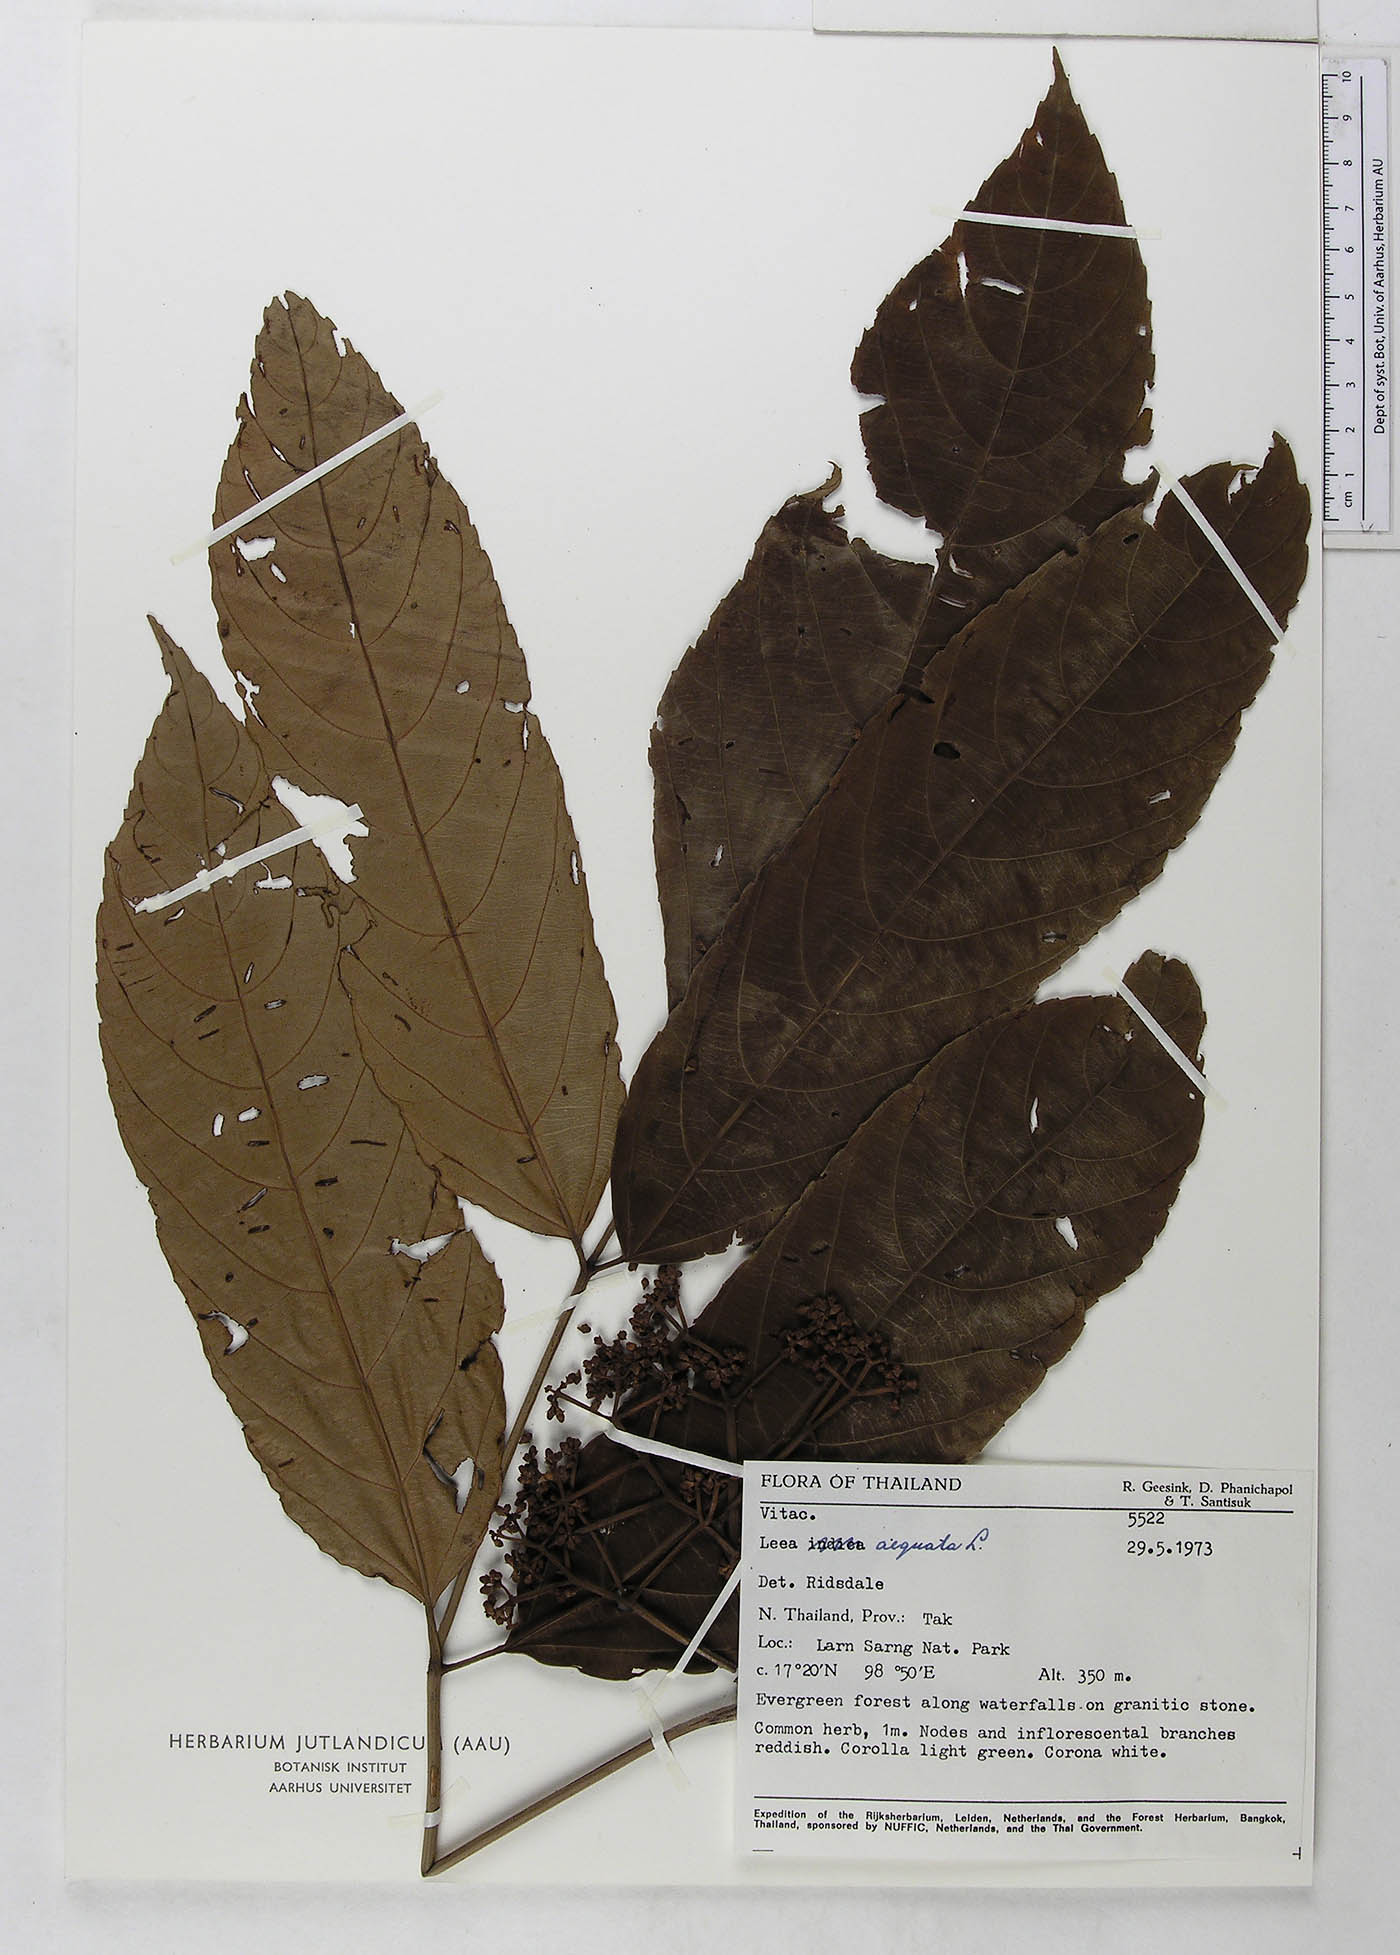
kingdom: Plantae
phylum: Tracheophyta
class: Magnoliopsida
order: Vitales
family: Vitaceae
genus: Leea
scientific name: Leea indica
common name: Bandicoot-berry
